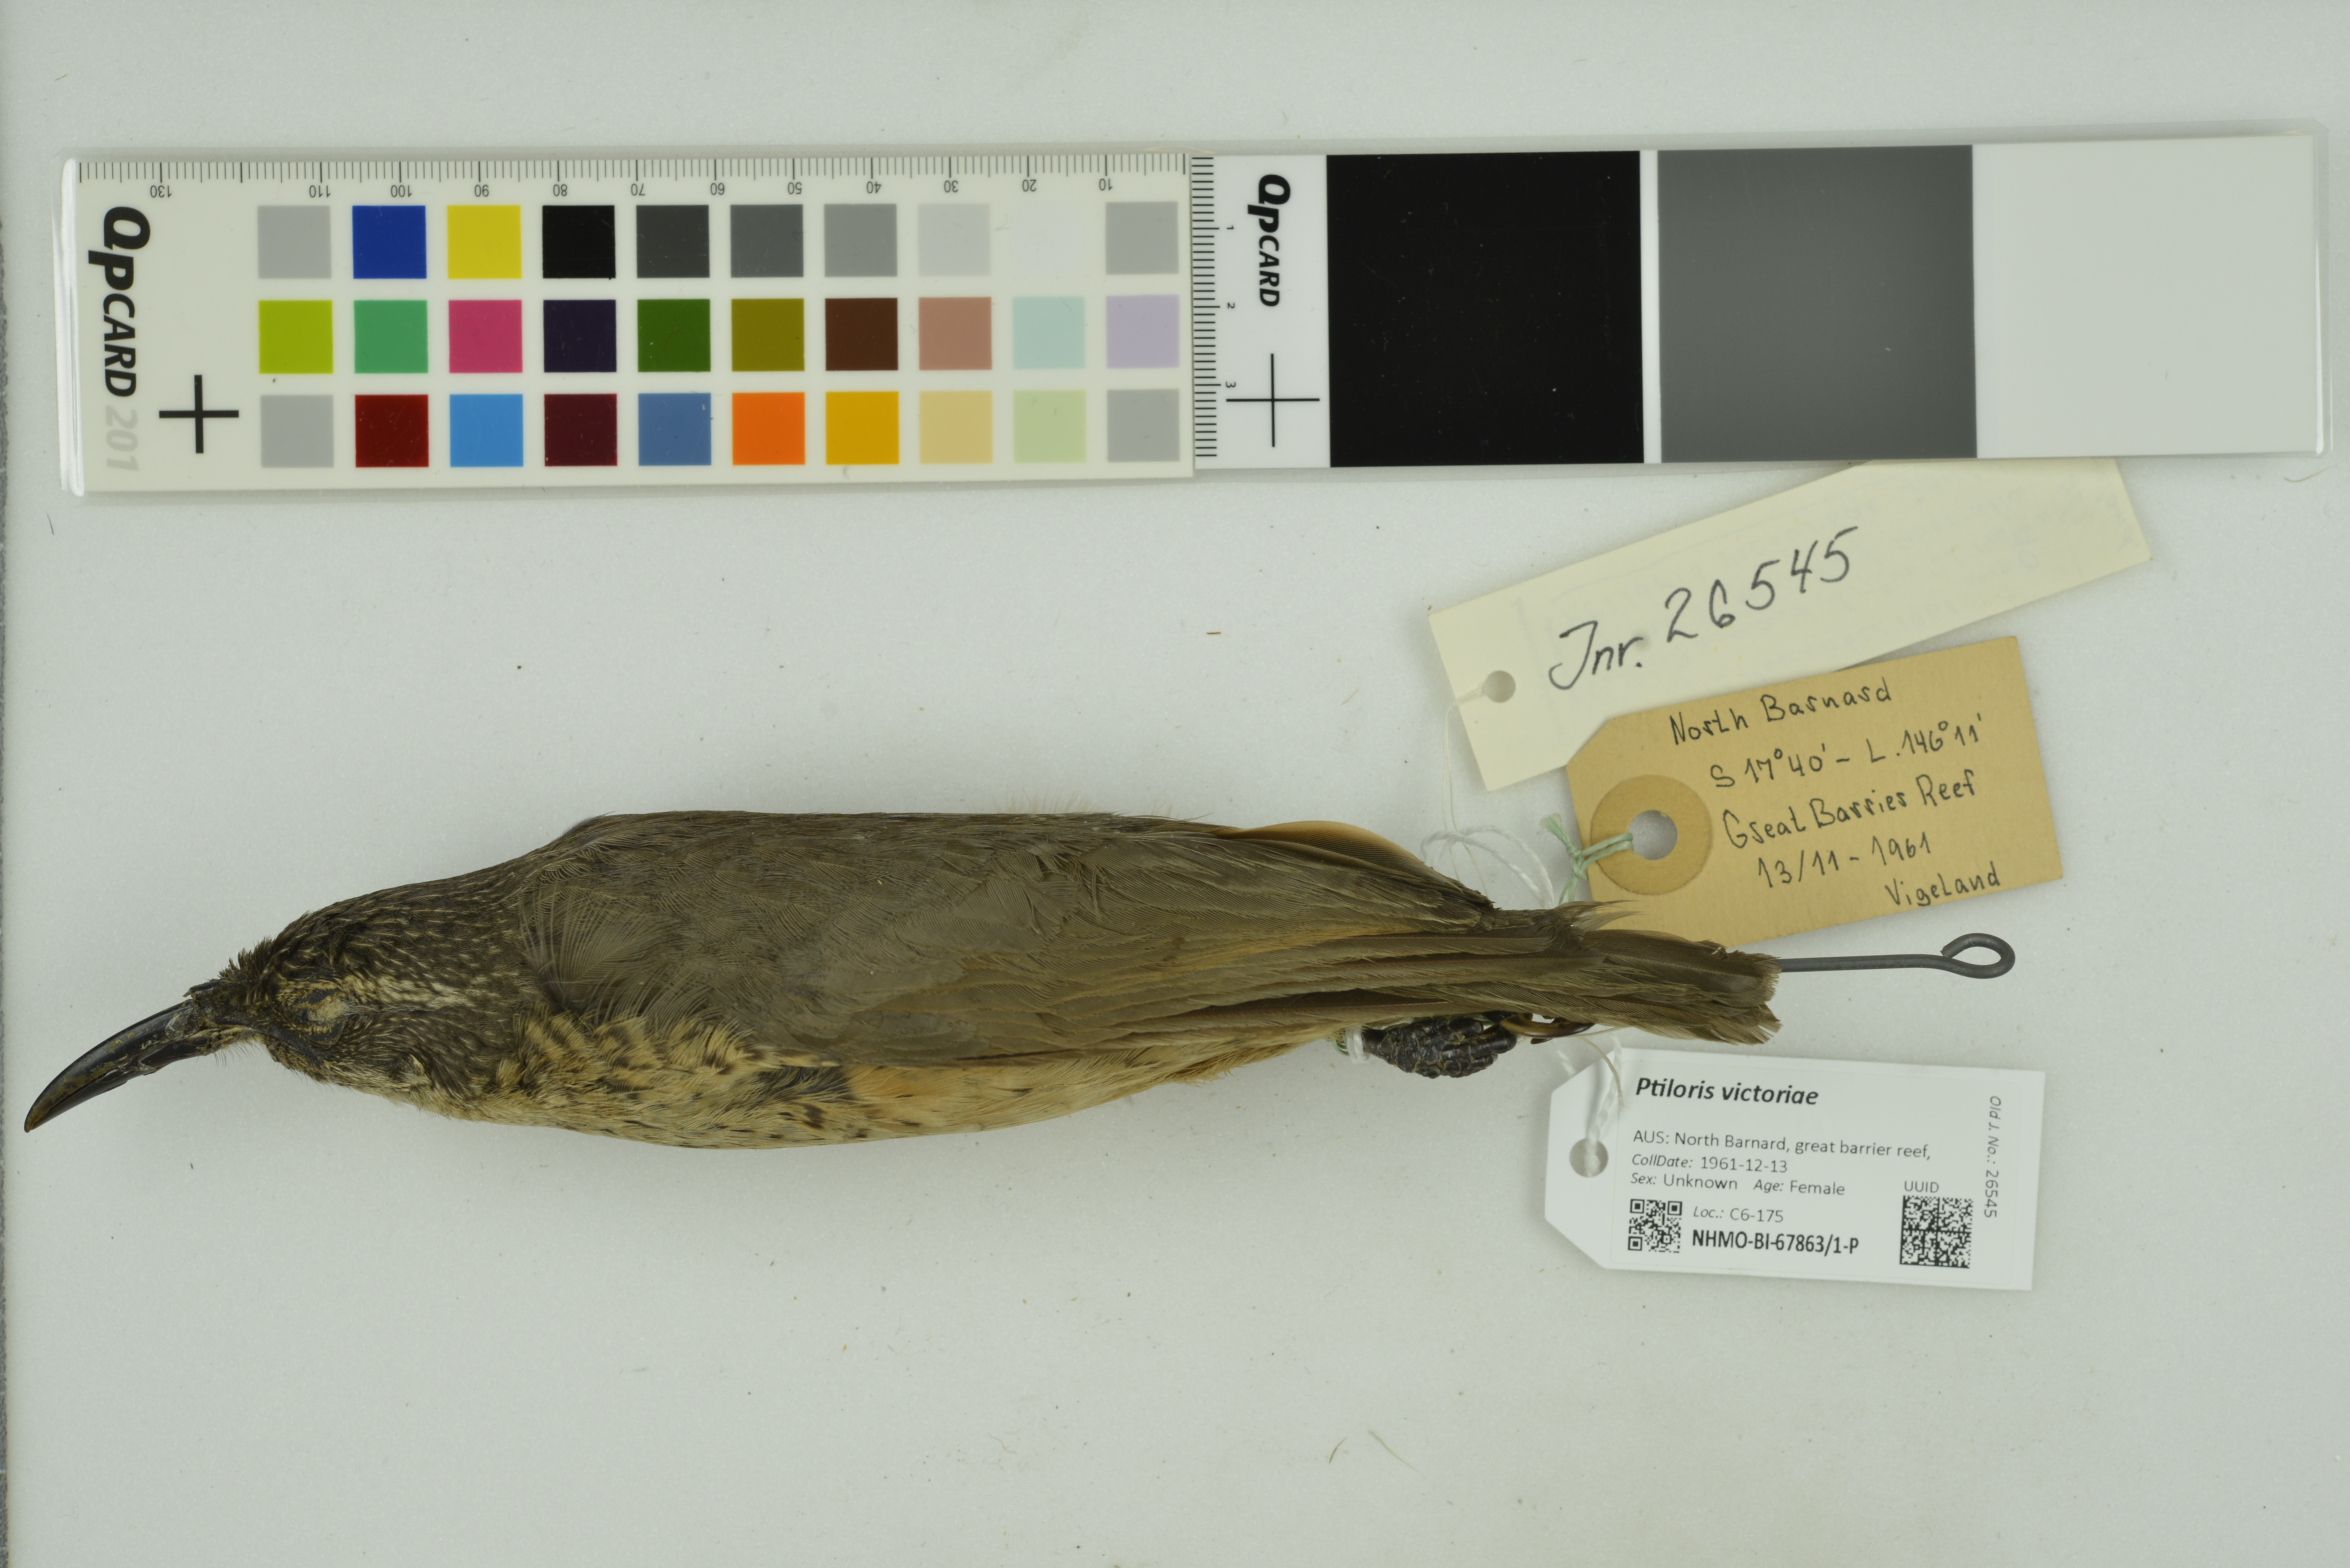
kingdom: Animalia
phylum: Chordata
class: Aves
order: Passeriformes
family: Paradisaeidae
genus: Ptiloris
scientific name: Ptiloris victoriae
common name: Victoria's riflebird
